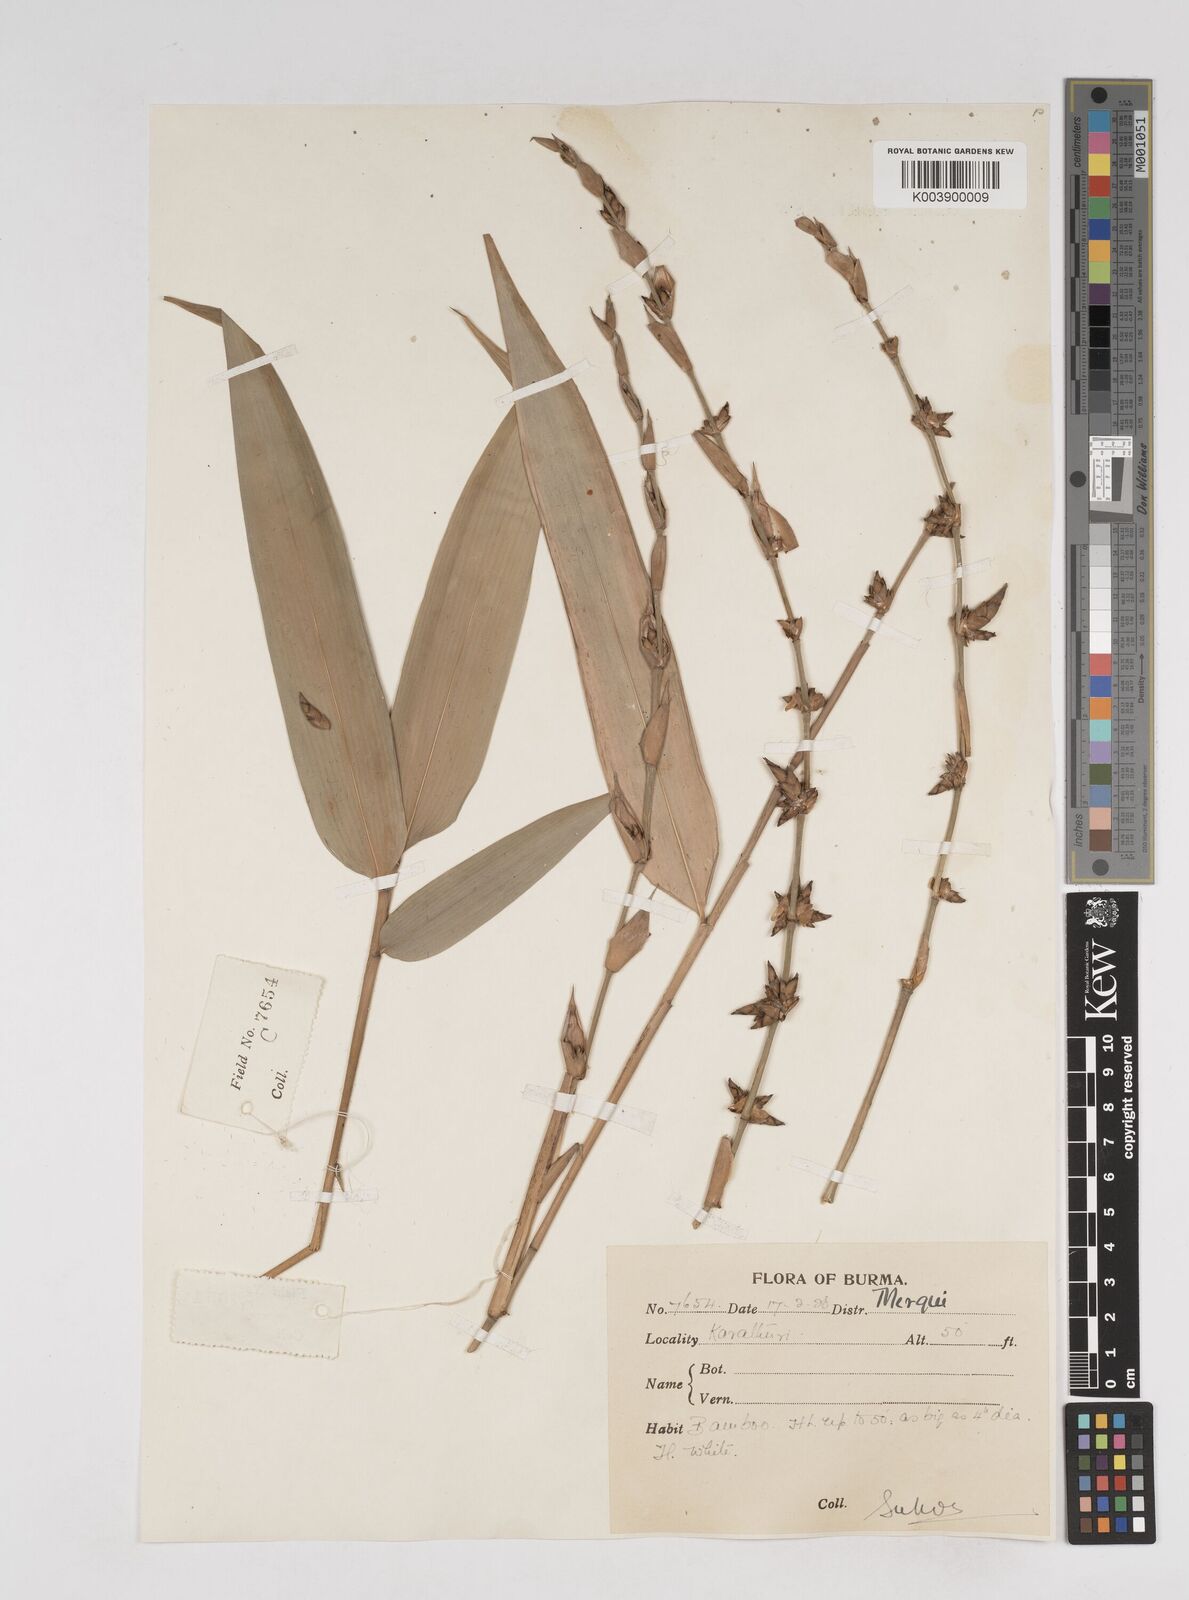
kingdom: Plantae
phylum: Tracheophyta
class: Liliopsida
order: Poales
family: Poaceae
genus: Gigantochloa
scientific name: Gigantochloa
